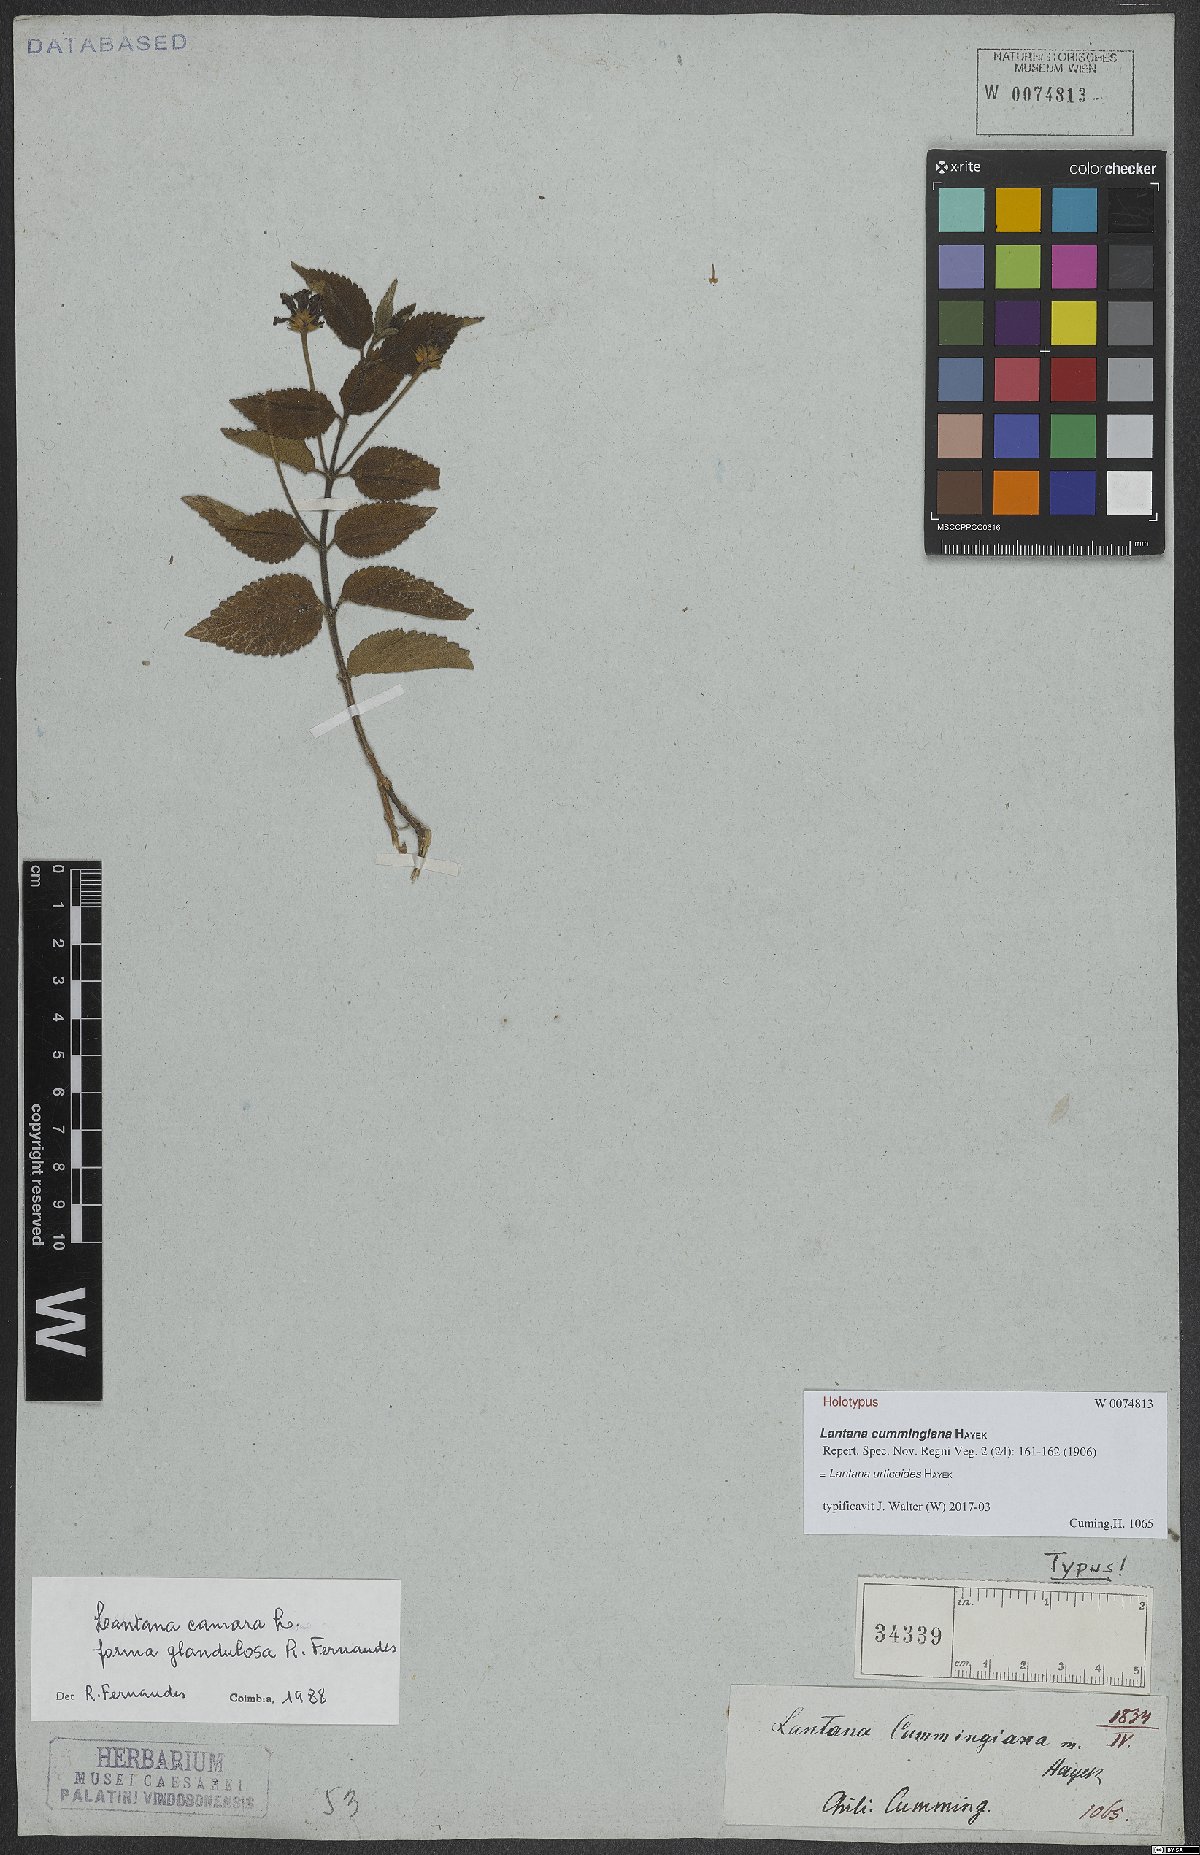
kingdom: Plantae
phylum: Tracheophyta
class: Magnoliopsida
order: Lamiales
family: Verbenaceae
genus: Lantana
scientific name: Lantana urticoides
